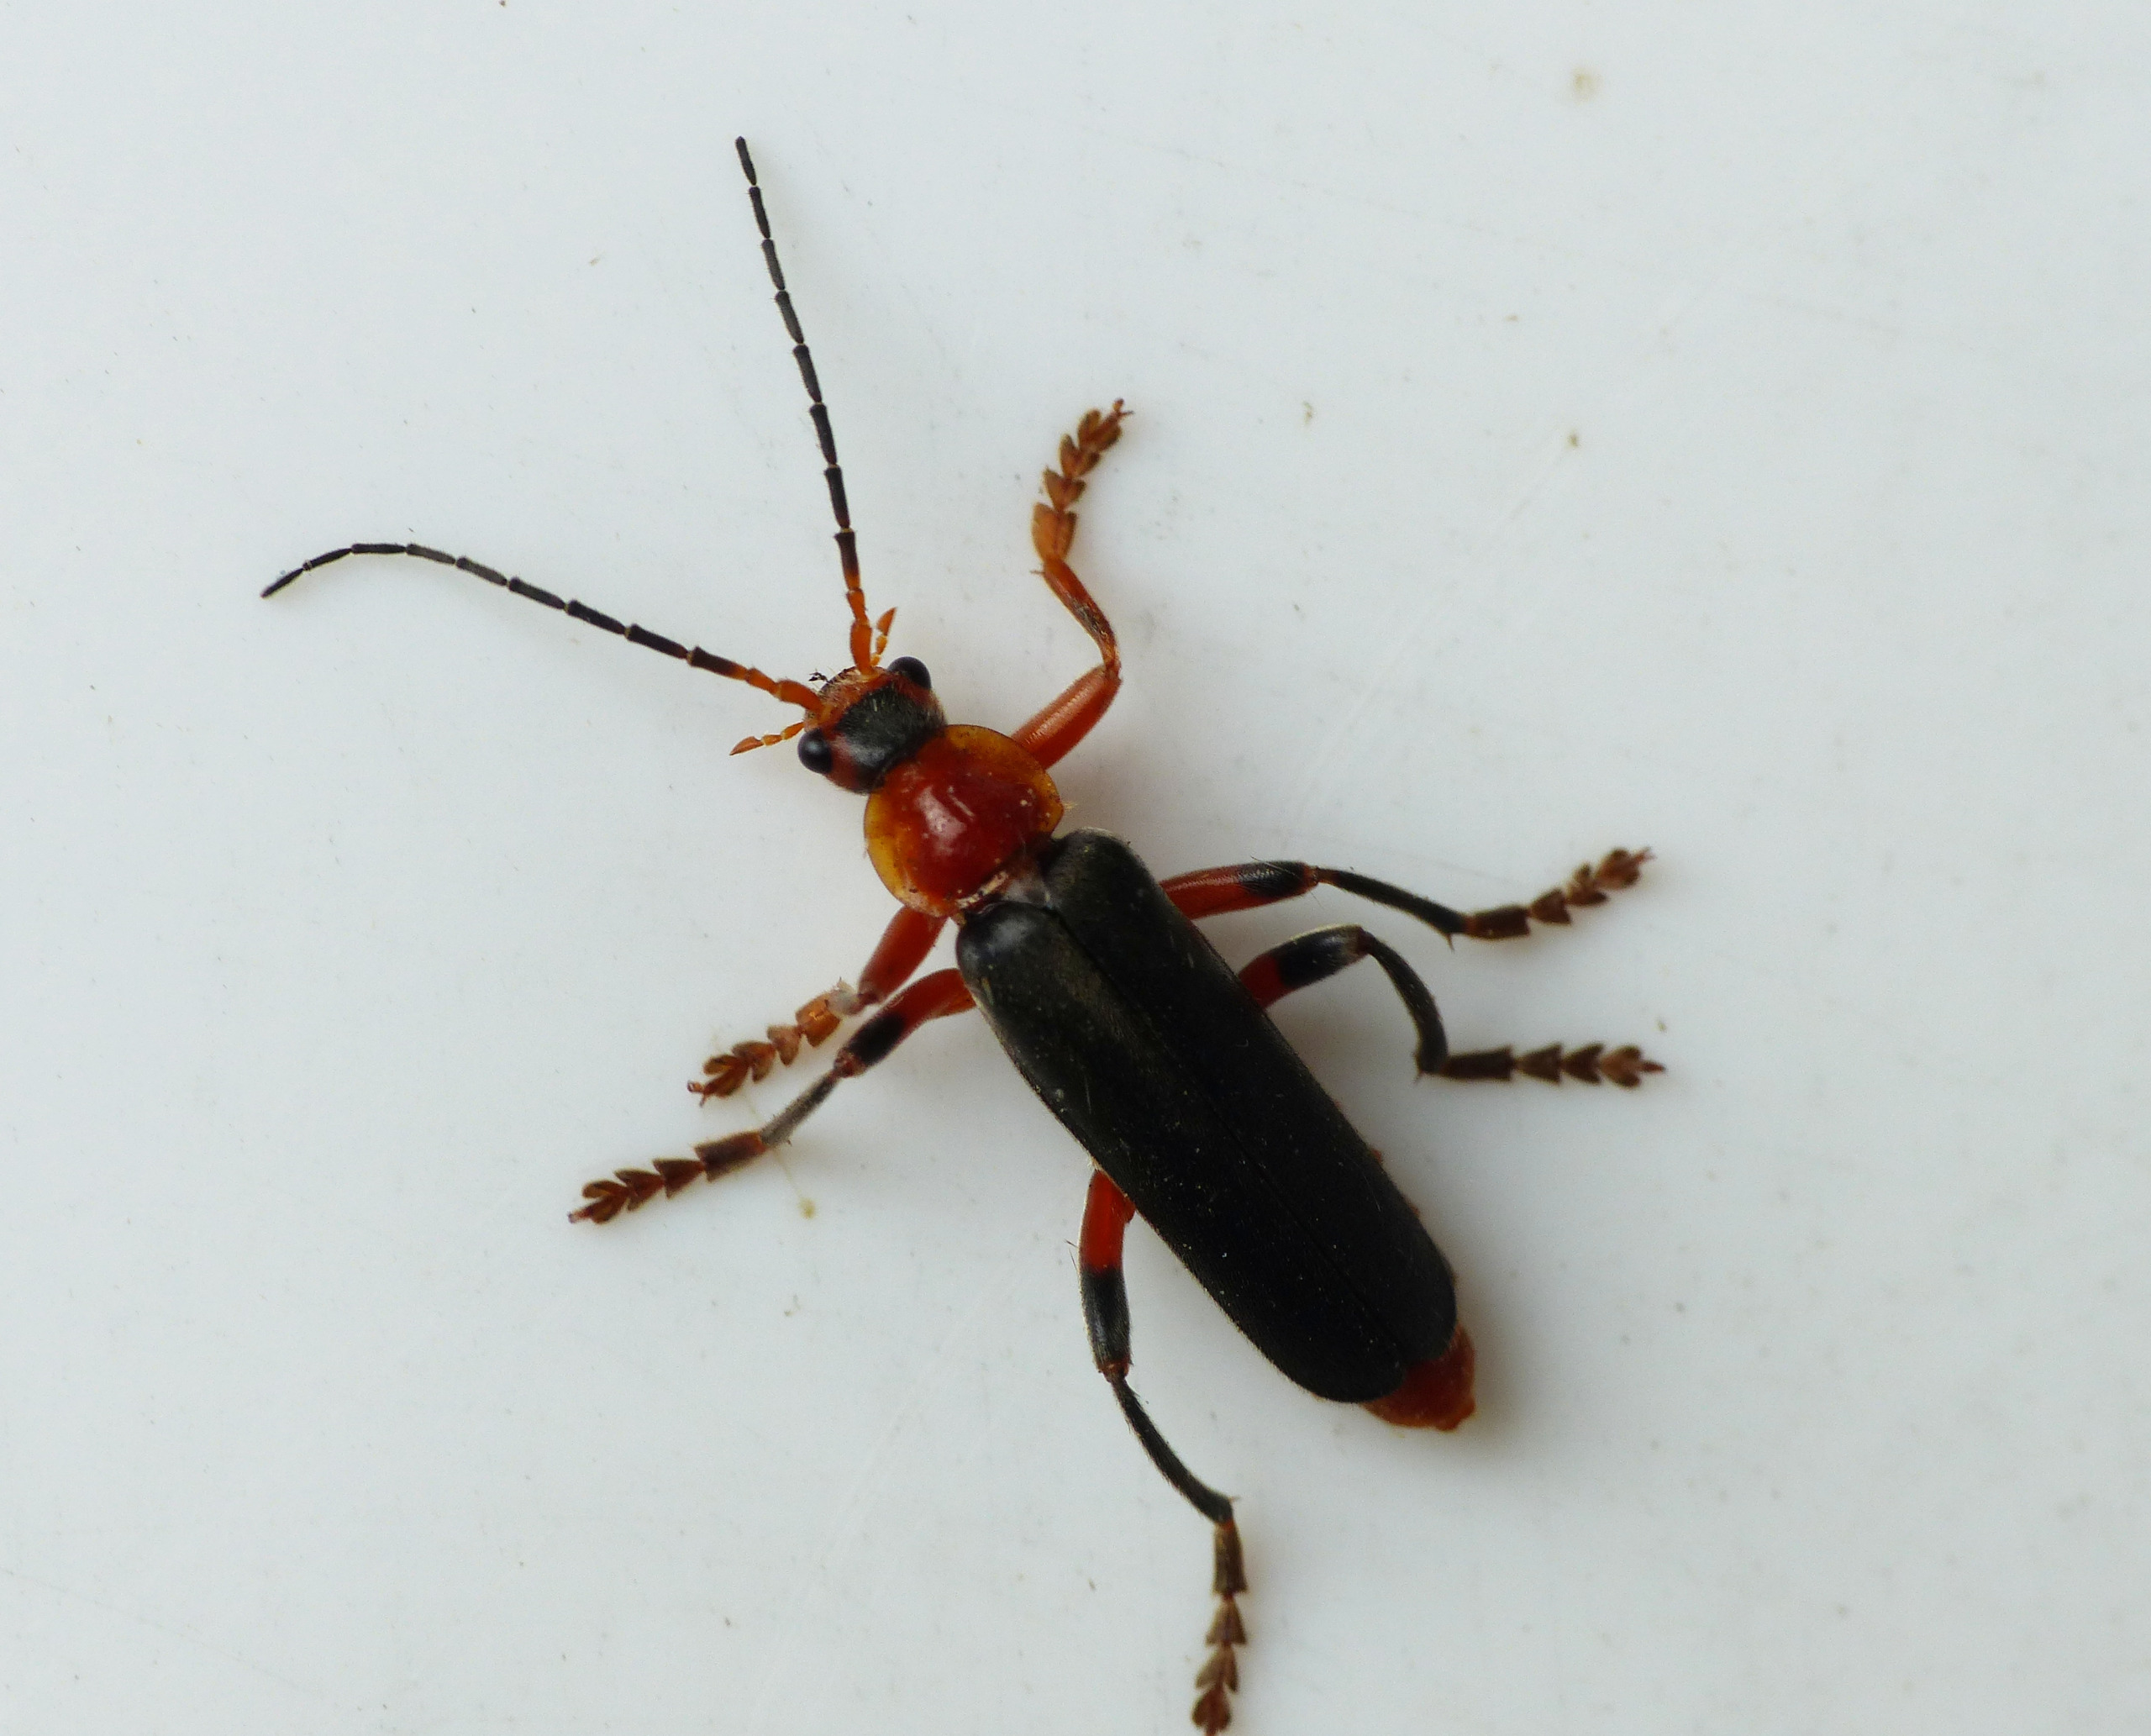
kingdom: Animalia
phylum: Arthropoda
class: Insecta
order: Coleoptera
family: Cantharidae
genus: Cantharis
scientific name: Cantharis livida
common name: Gul blødvinge
